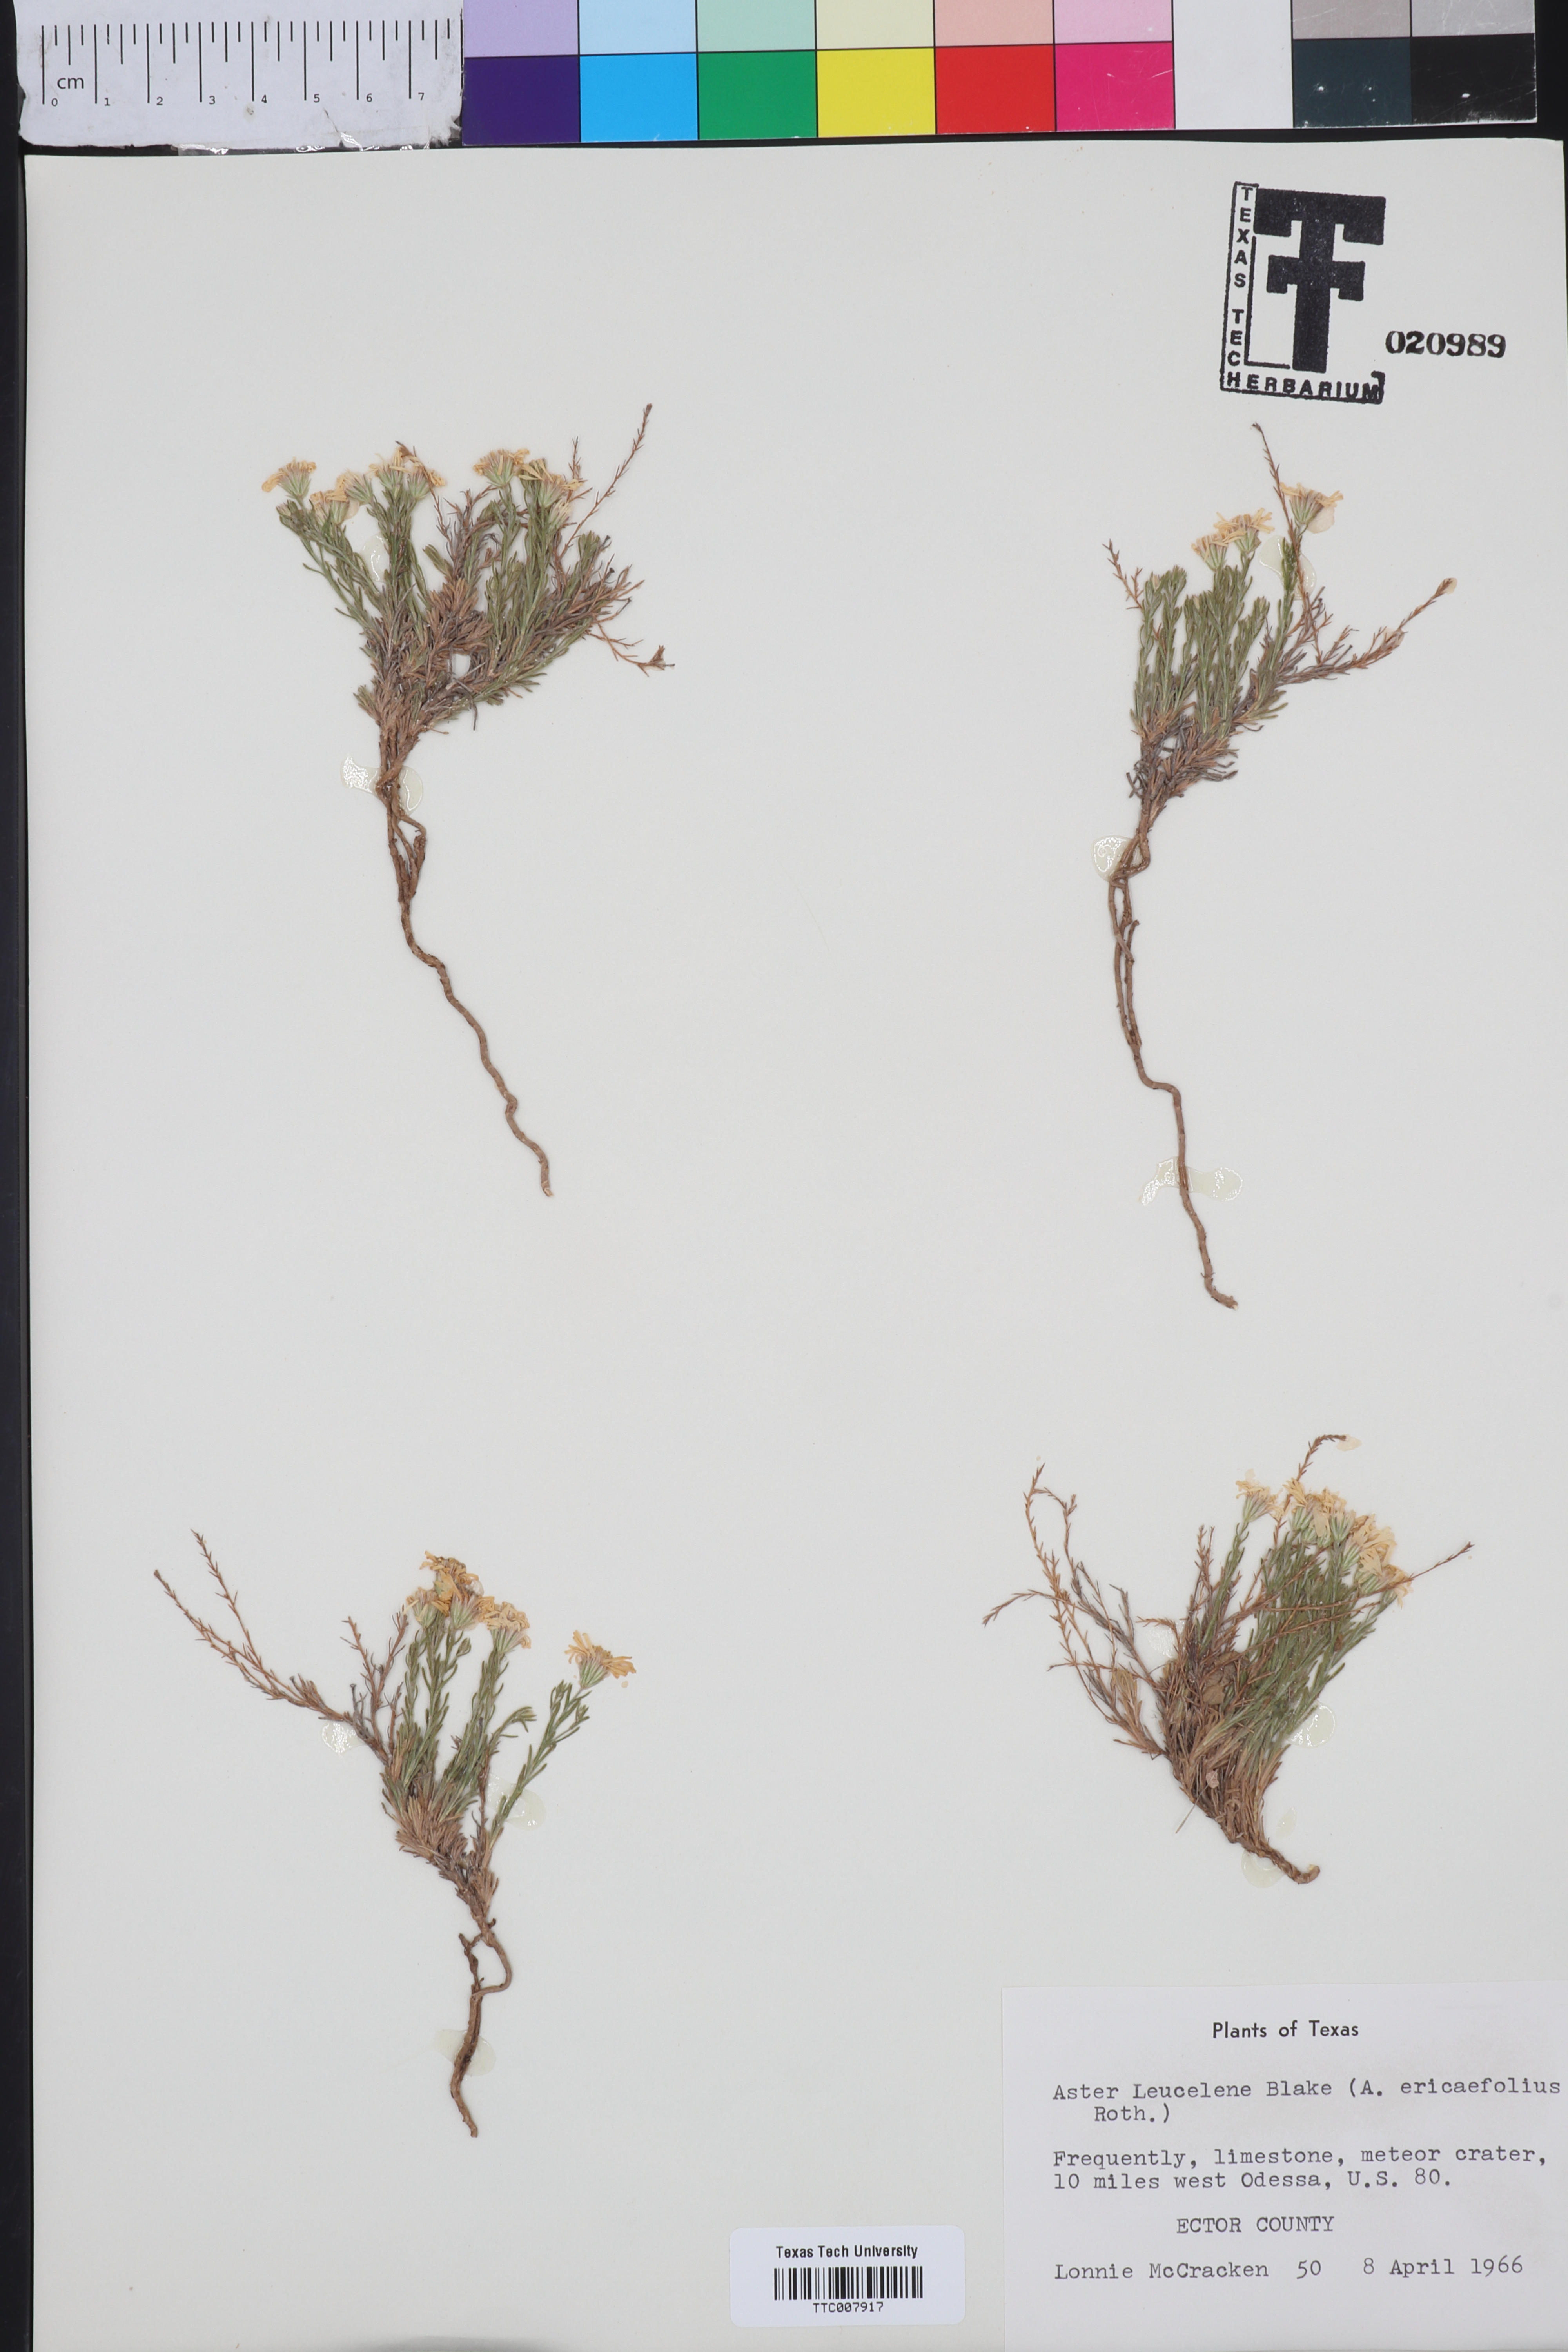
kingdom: Plantae
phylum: Tracheophyta
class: Magnoliopsida
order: Asterales
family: Asteraceae
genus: Chaetopappa
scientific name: Chaetopappa ericoides
